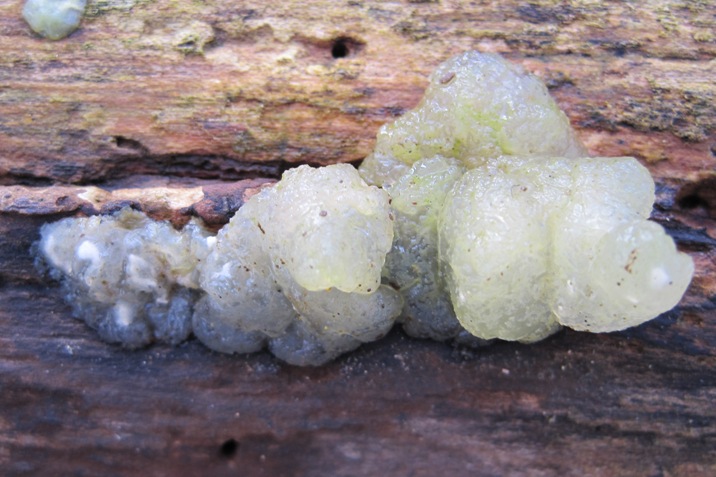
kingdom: Fungi
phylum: Basidiomycota
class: Agaricomycetes
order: Auriculariales
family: Hyaloriaceae
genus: Myxarium
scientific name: Myxarium nucleatum
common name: klar bævretop
